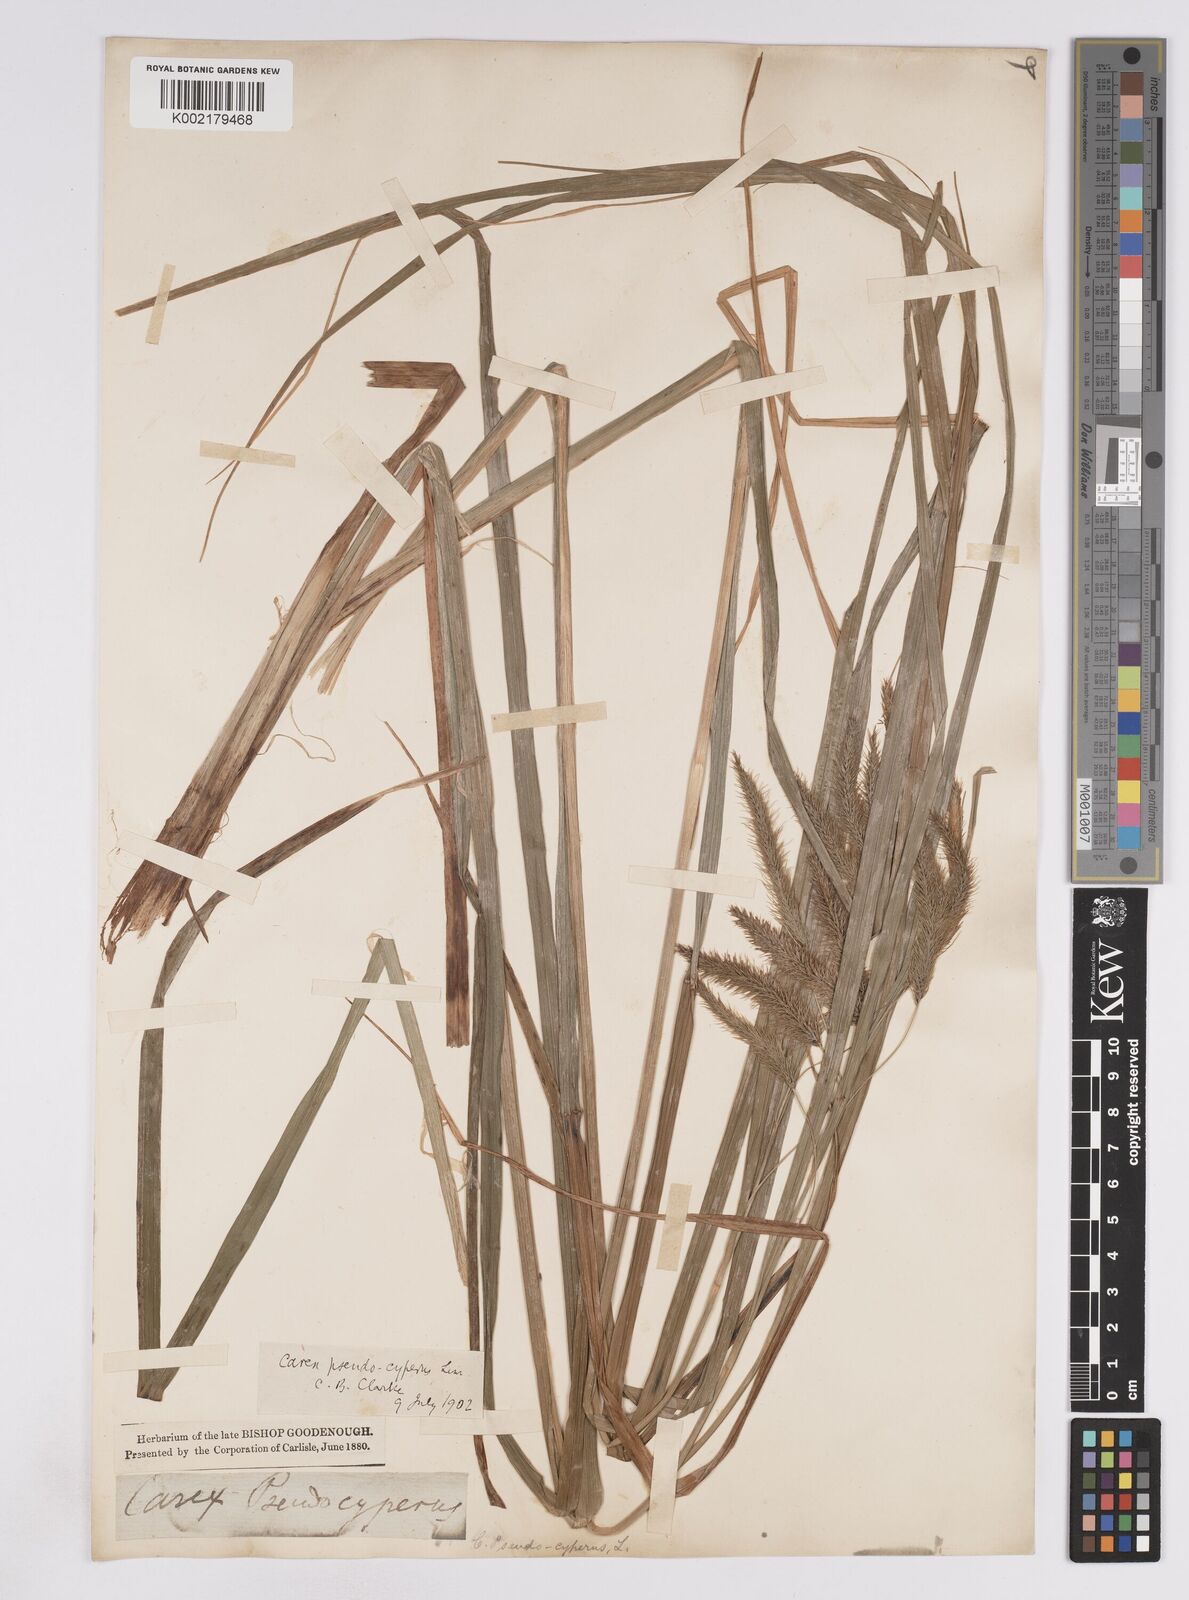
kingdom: Plantae
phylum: Tracheophyta
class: Liliopsida
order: Poales
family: Cyperaceae
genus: Carex
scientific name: Carex pseudocyperus
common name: Cyperus sedge
